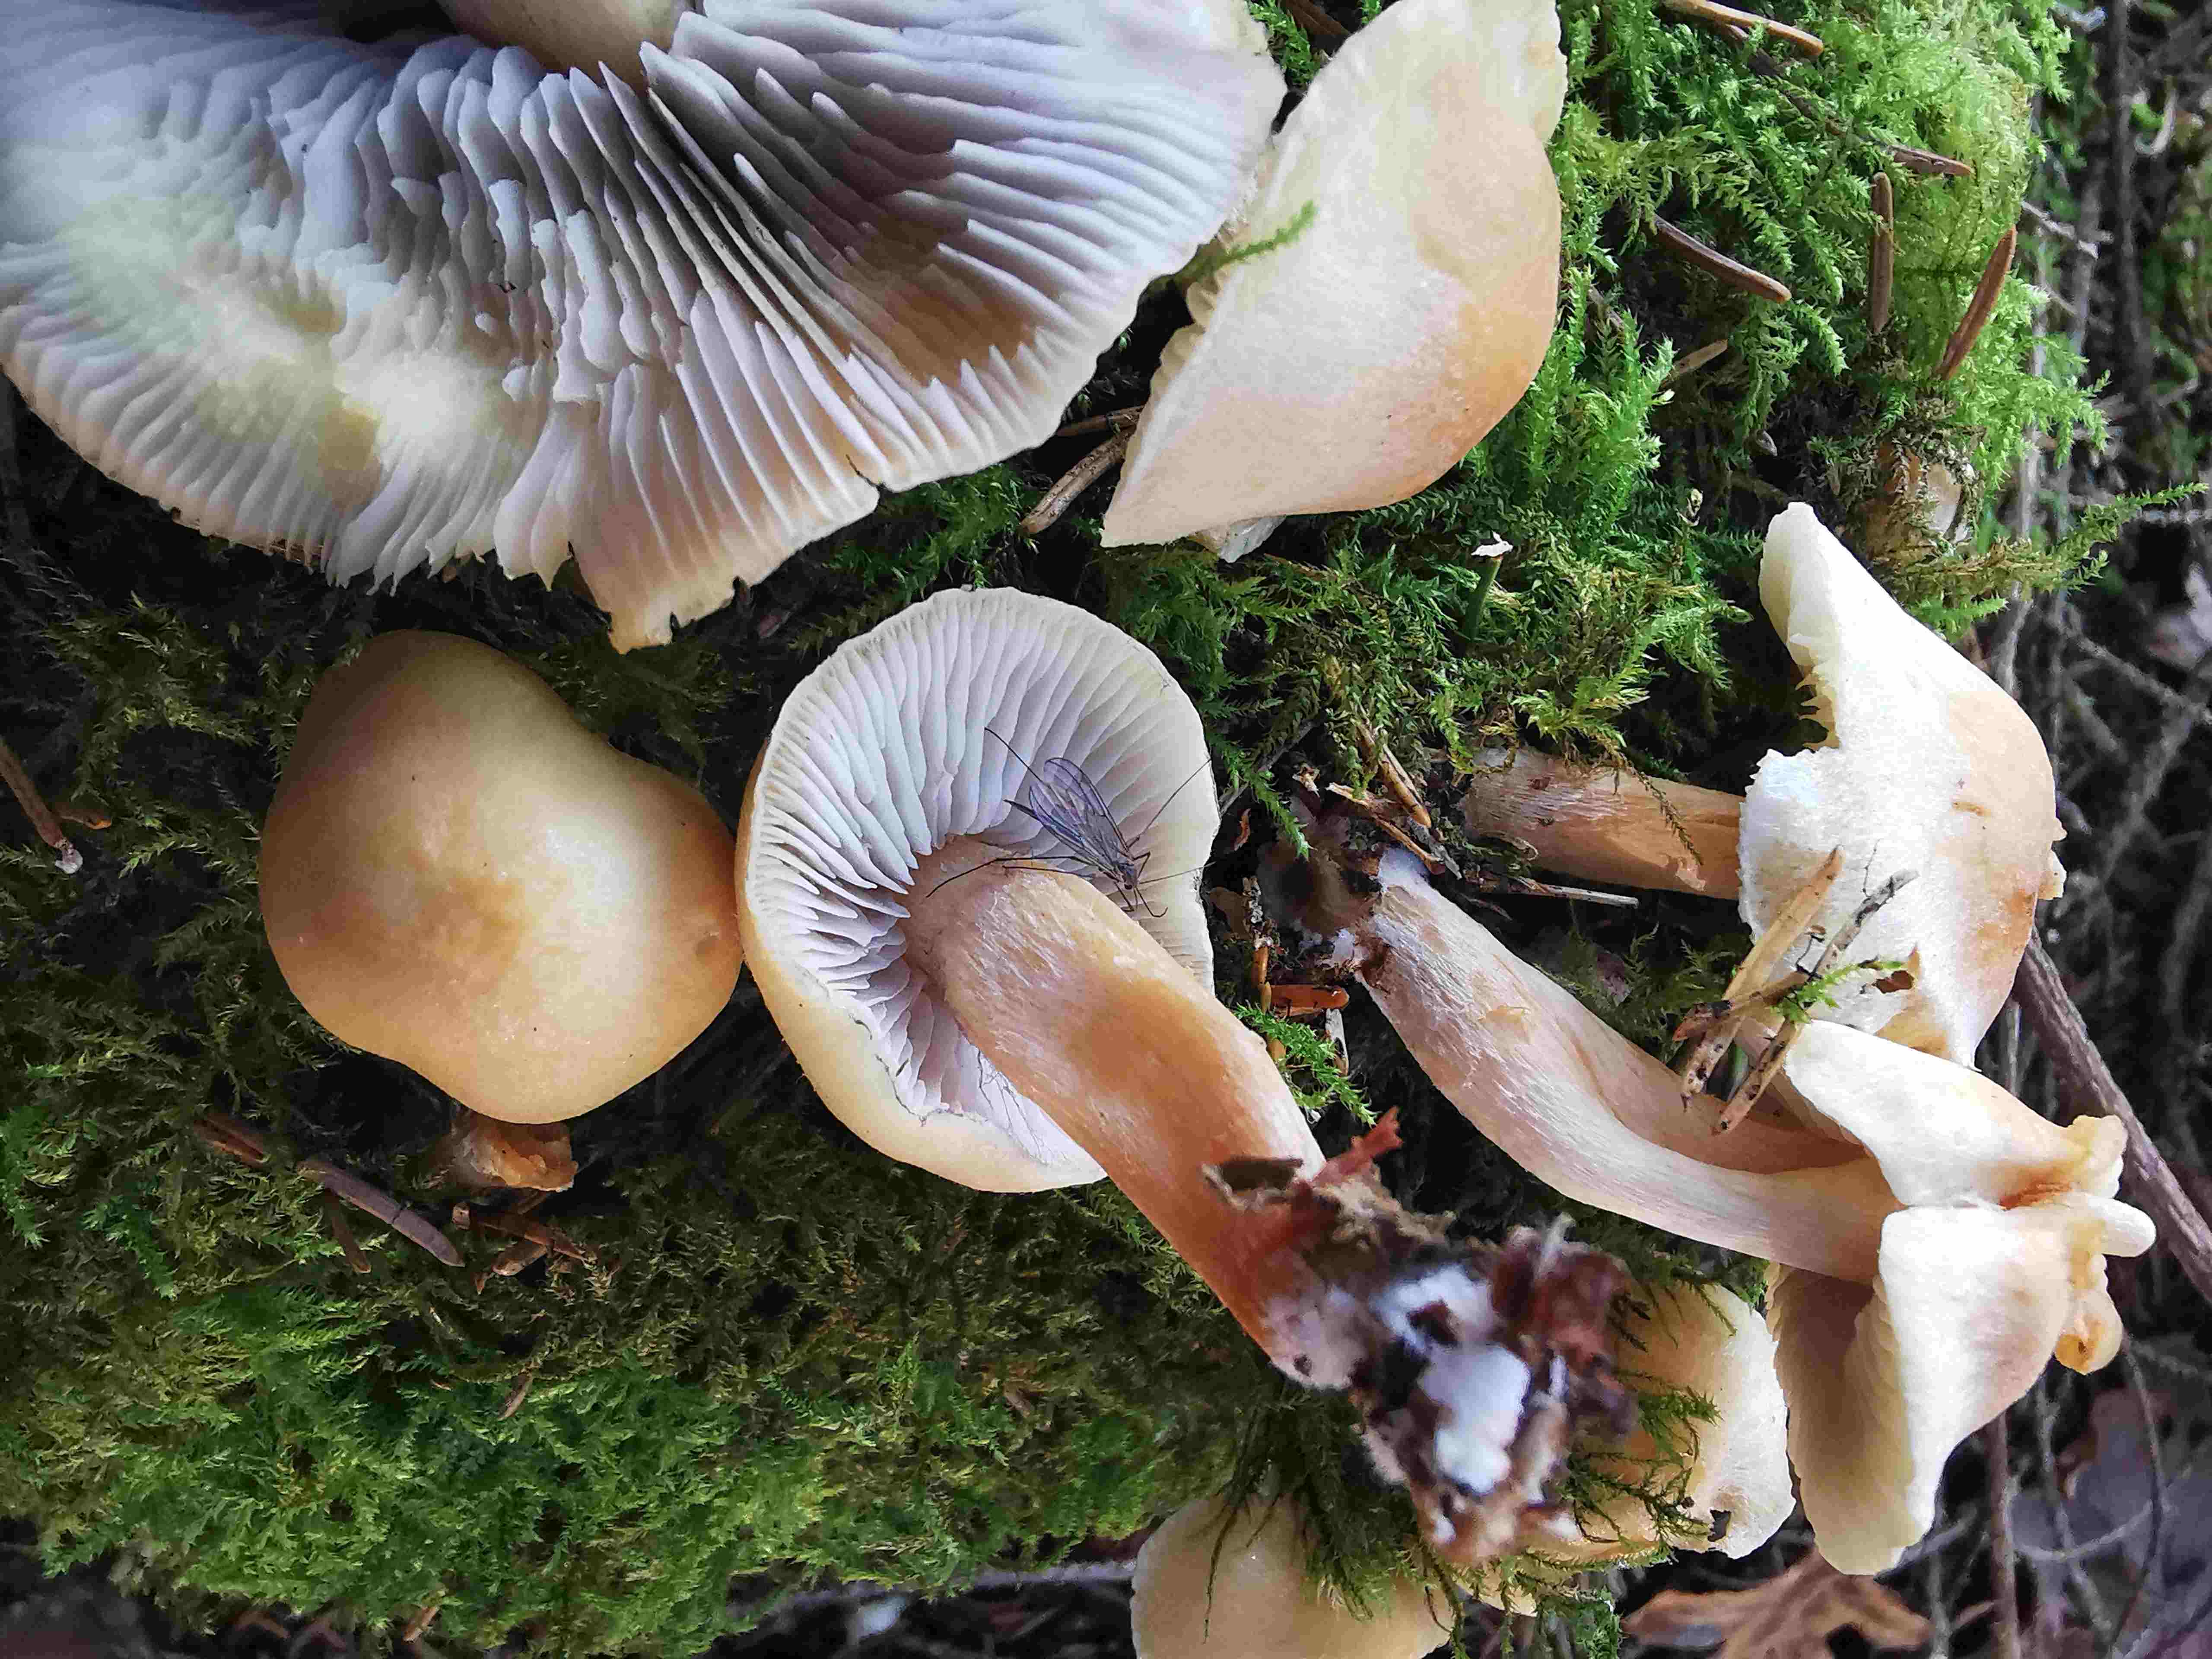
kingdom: Fungi
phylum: Basidiomycota
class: Agaricomycetes
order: Agaricales
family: Strophariaceae
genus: Hypholoma
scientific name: Hypholoma capnoides
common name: gran-svovlhat
